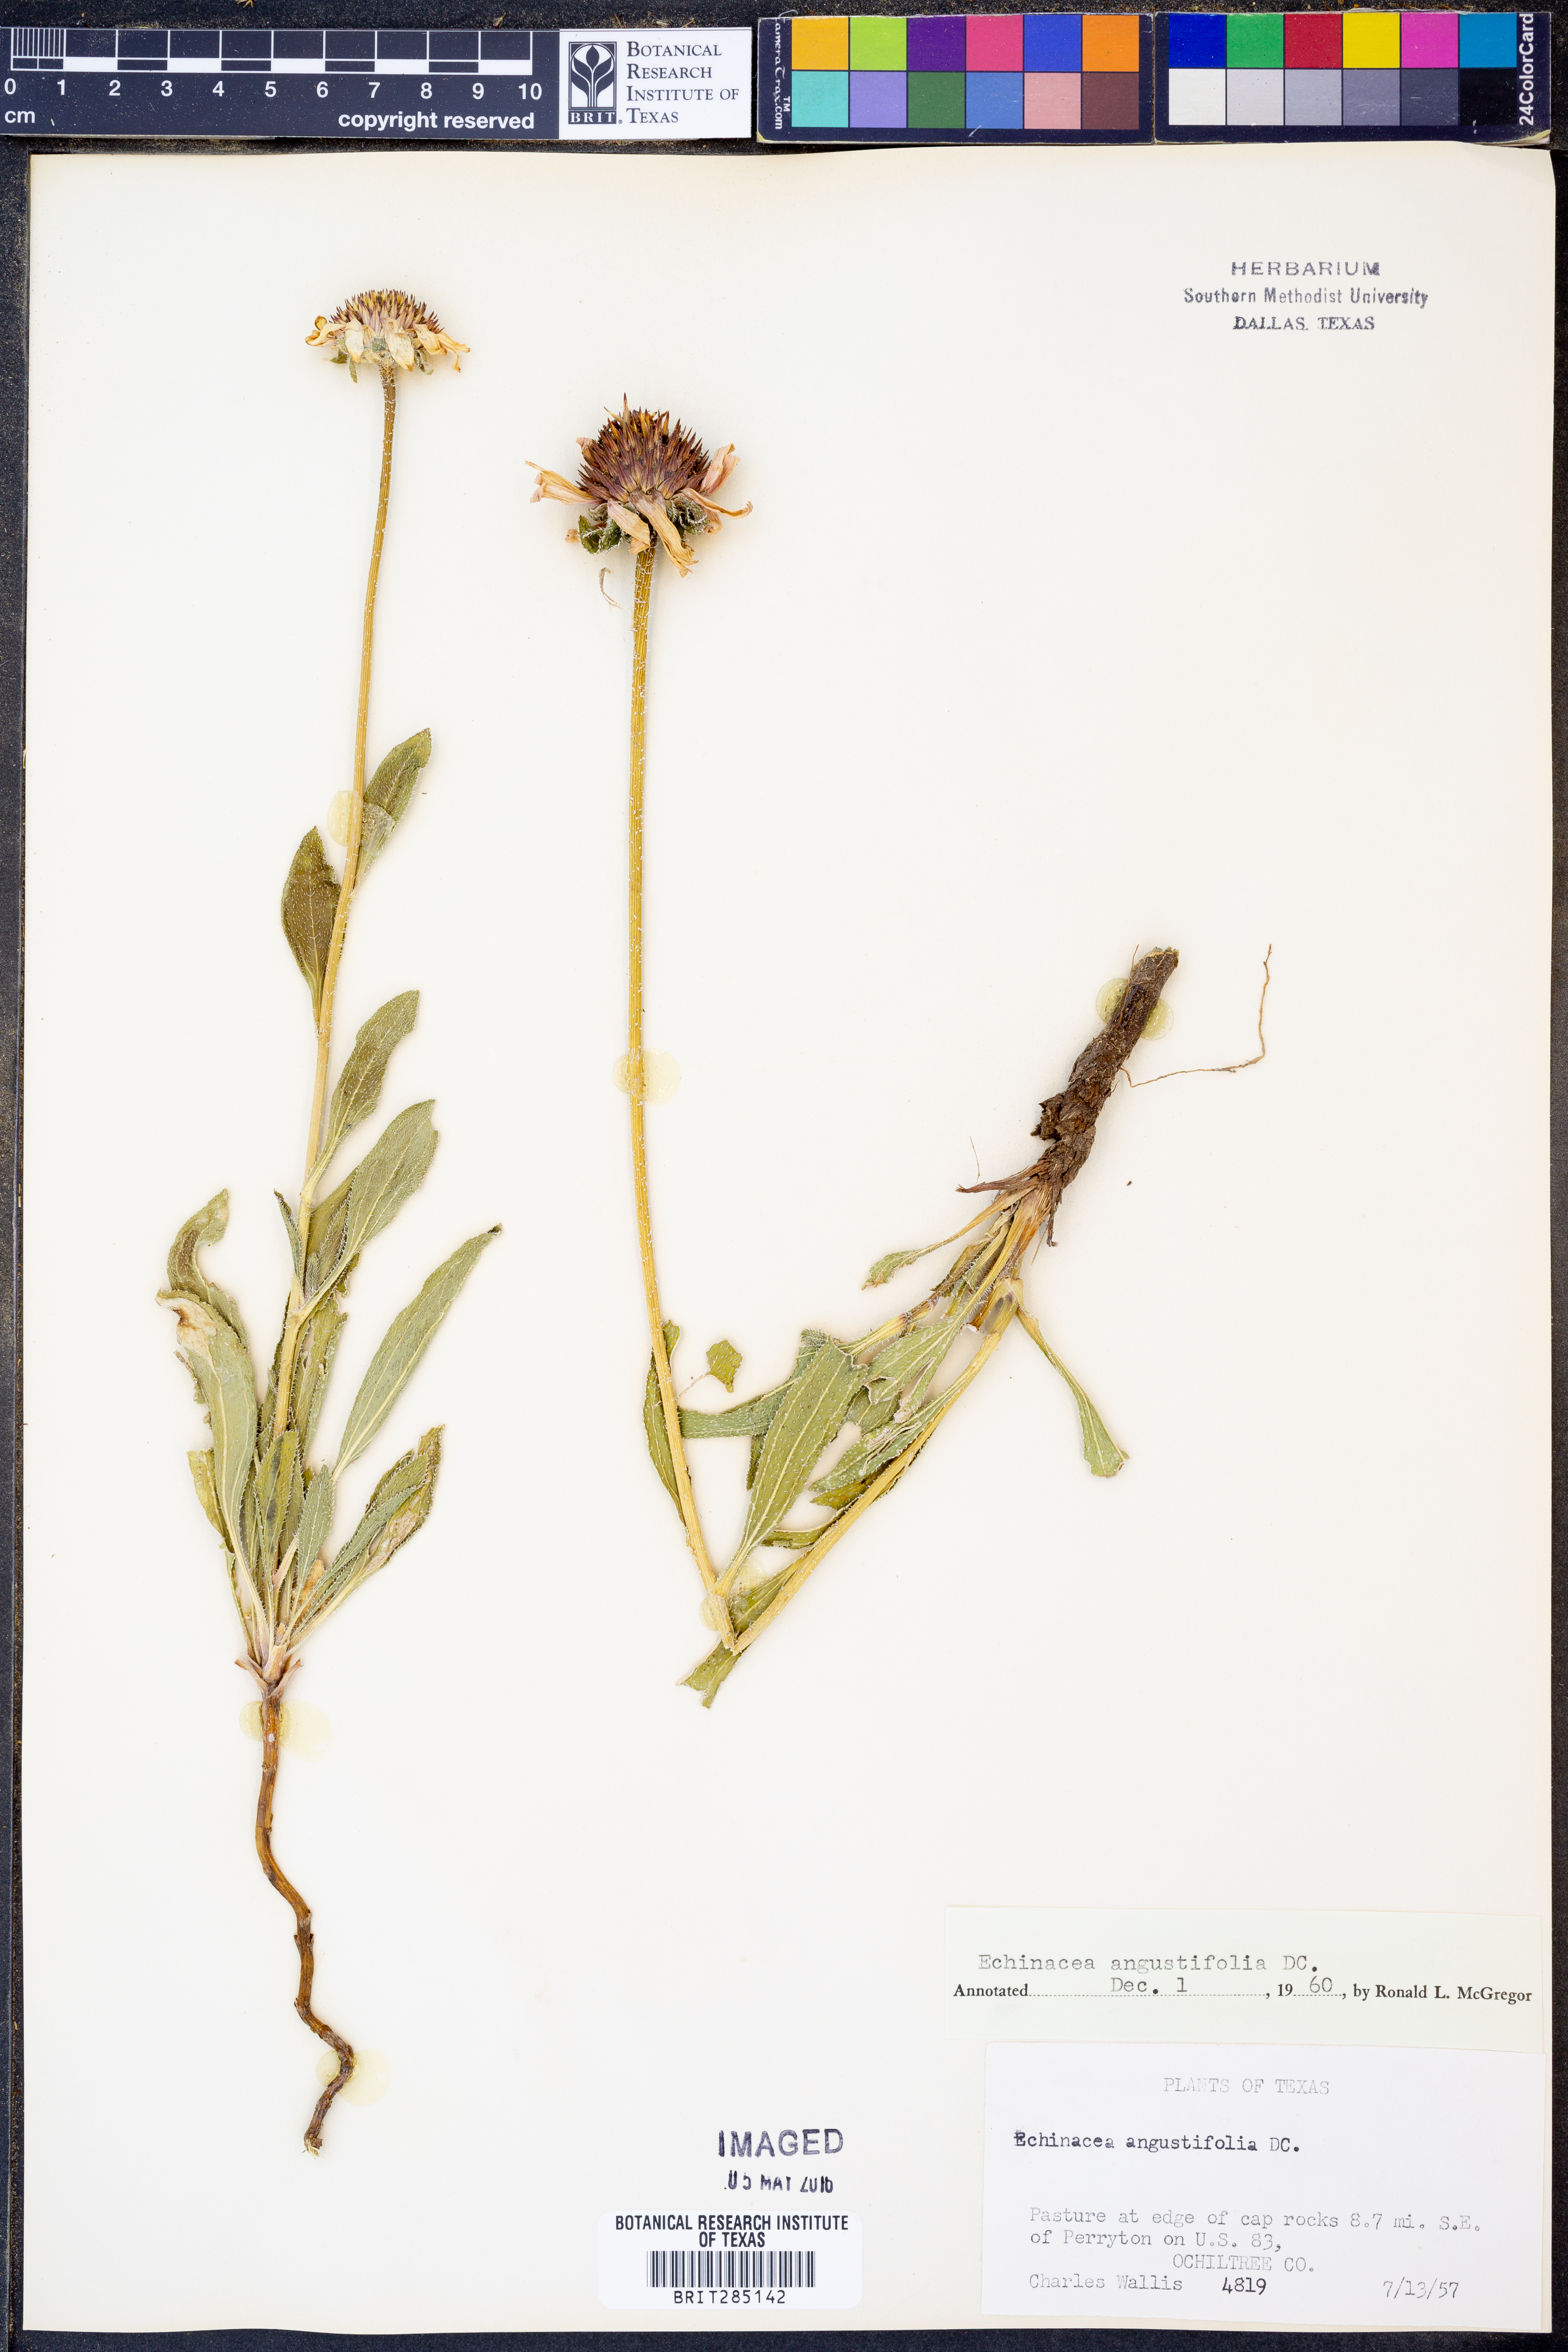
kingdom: Plantae
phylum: Tracheophyta
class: Magnoliopsida
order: Asterales
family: Asteraceae
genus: Echinacea
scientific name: Echinacea angustifolia
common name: Black-sampson echinacea
